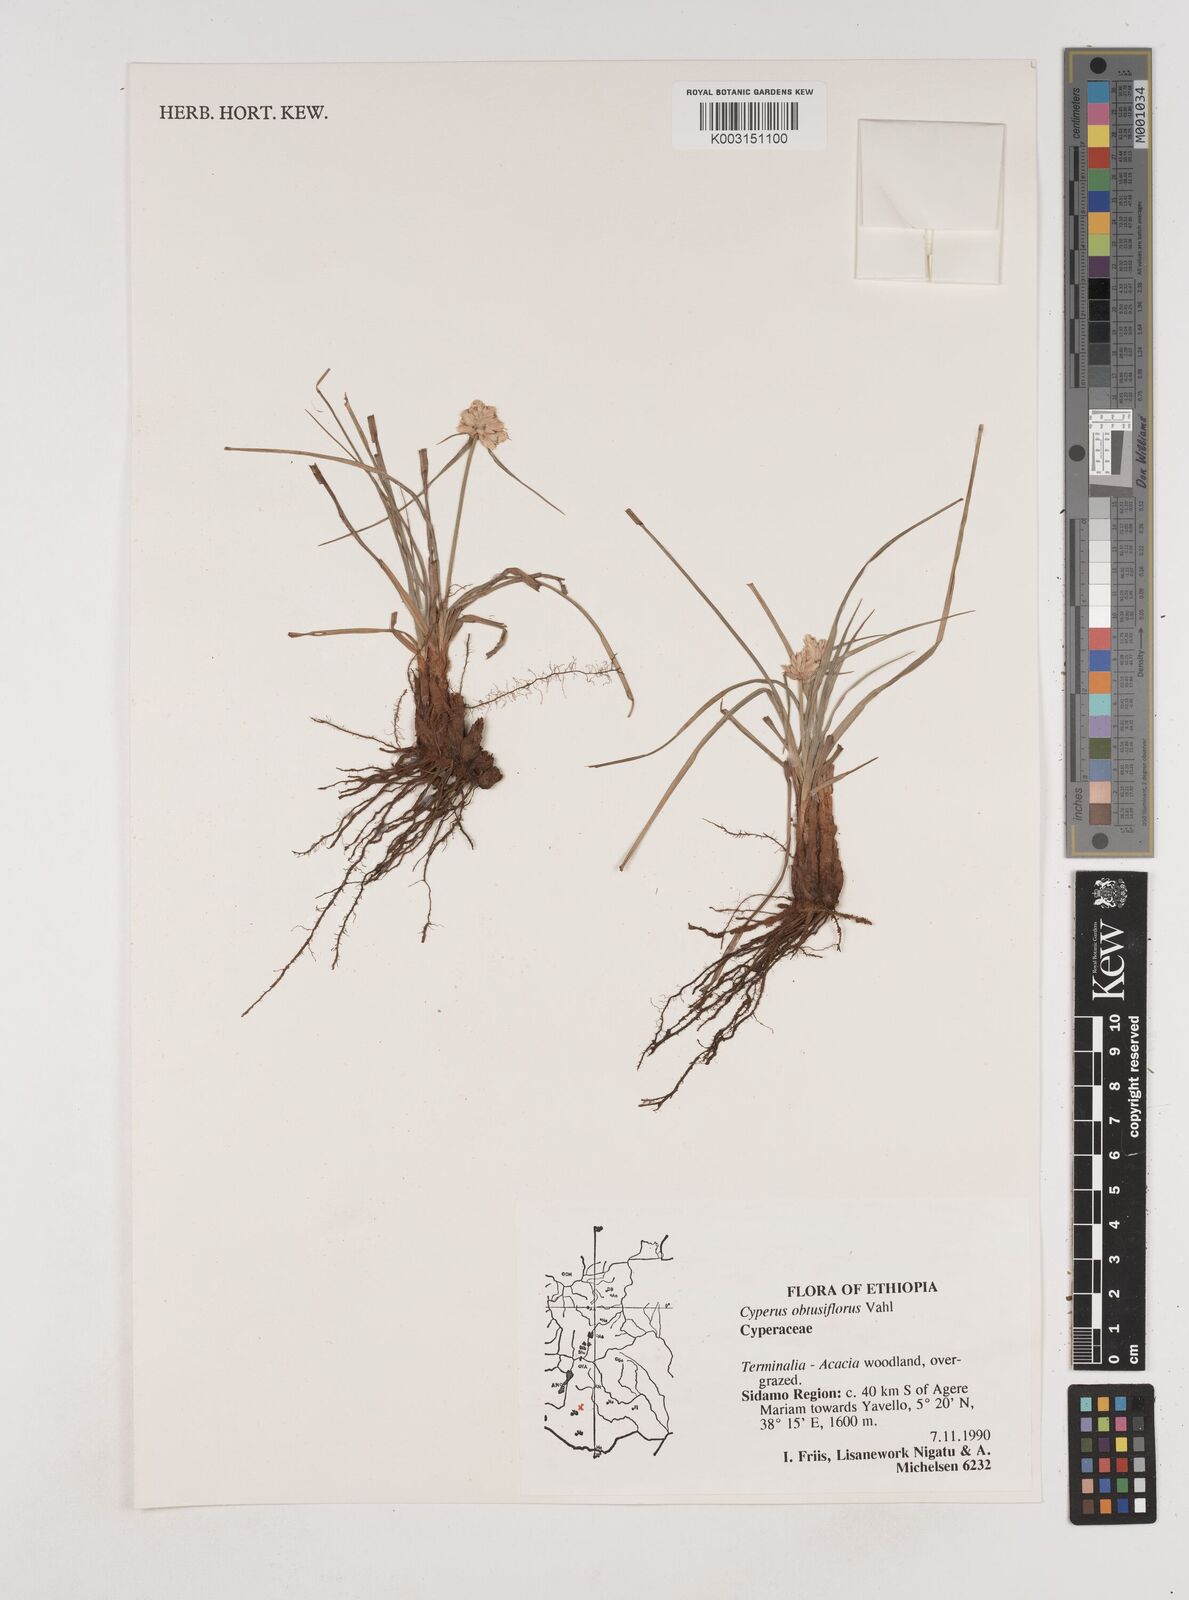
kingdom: Plantae
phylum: Tracheophyta
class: Liliopsida
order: Poales
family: Cyperaceae
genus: Cyperus
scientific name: Cyperus niveus
